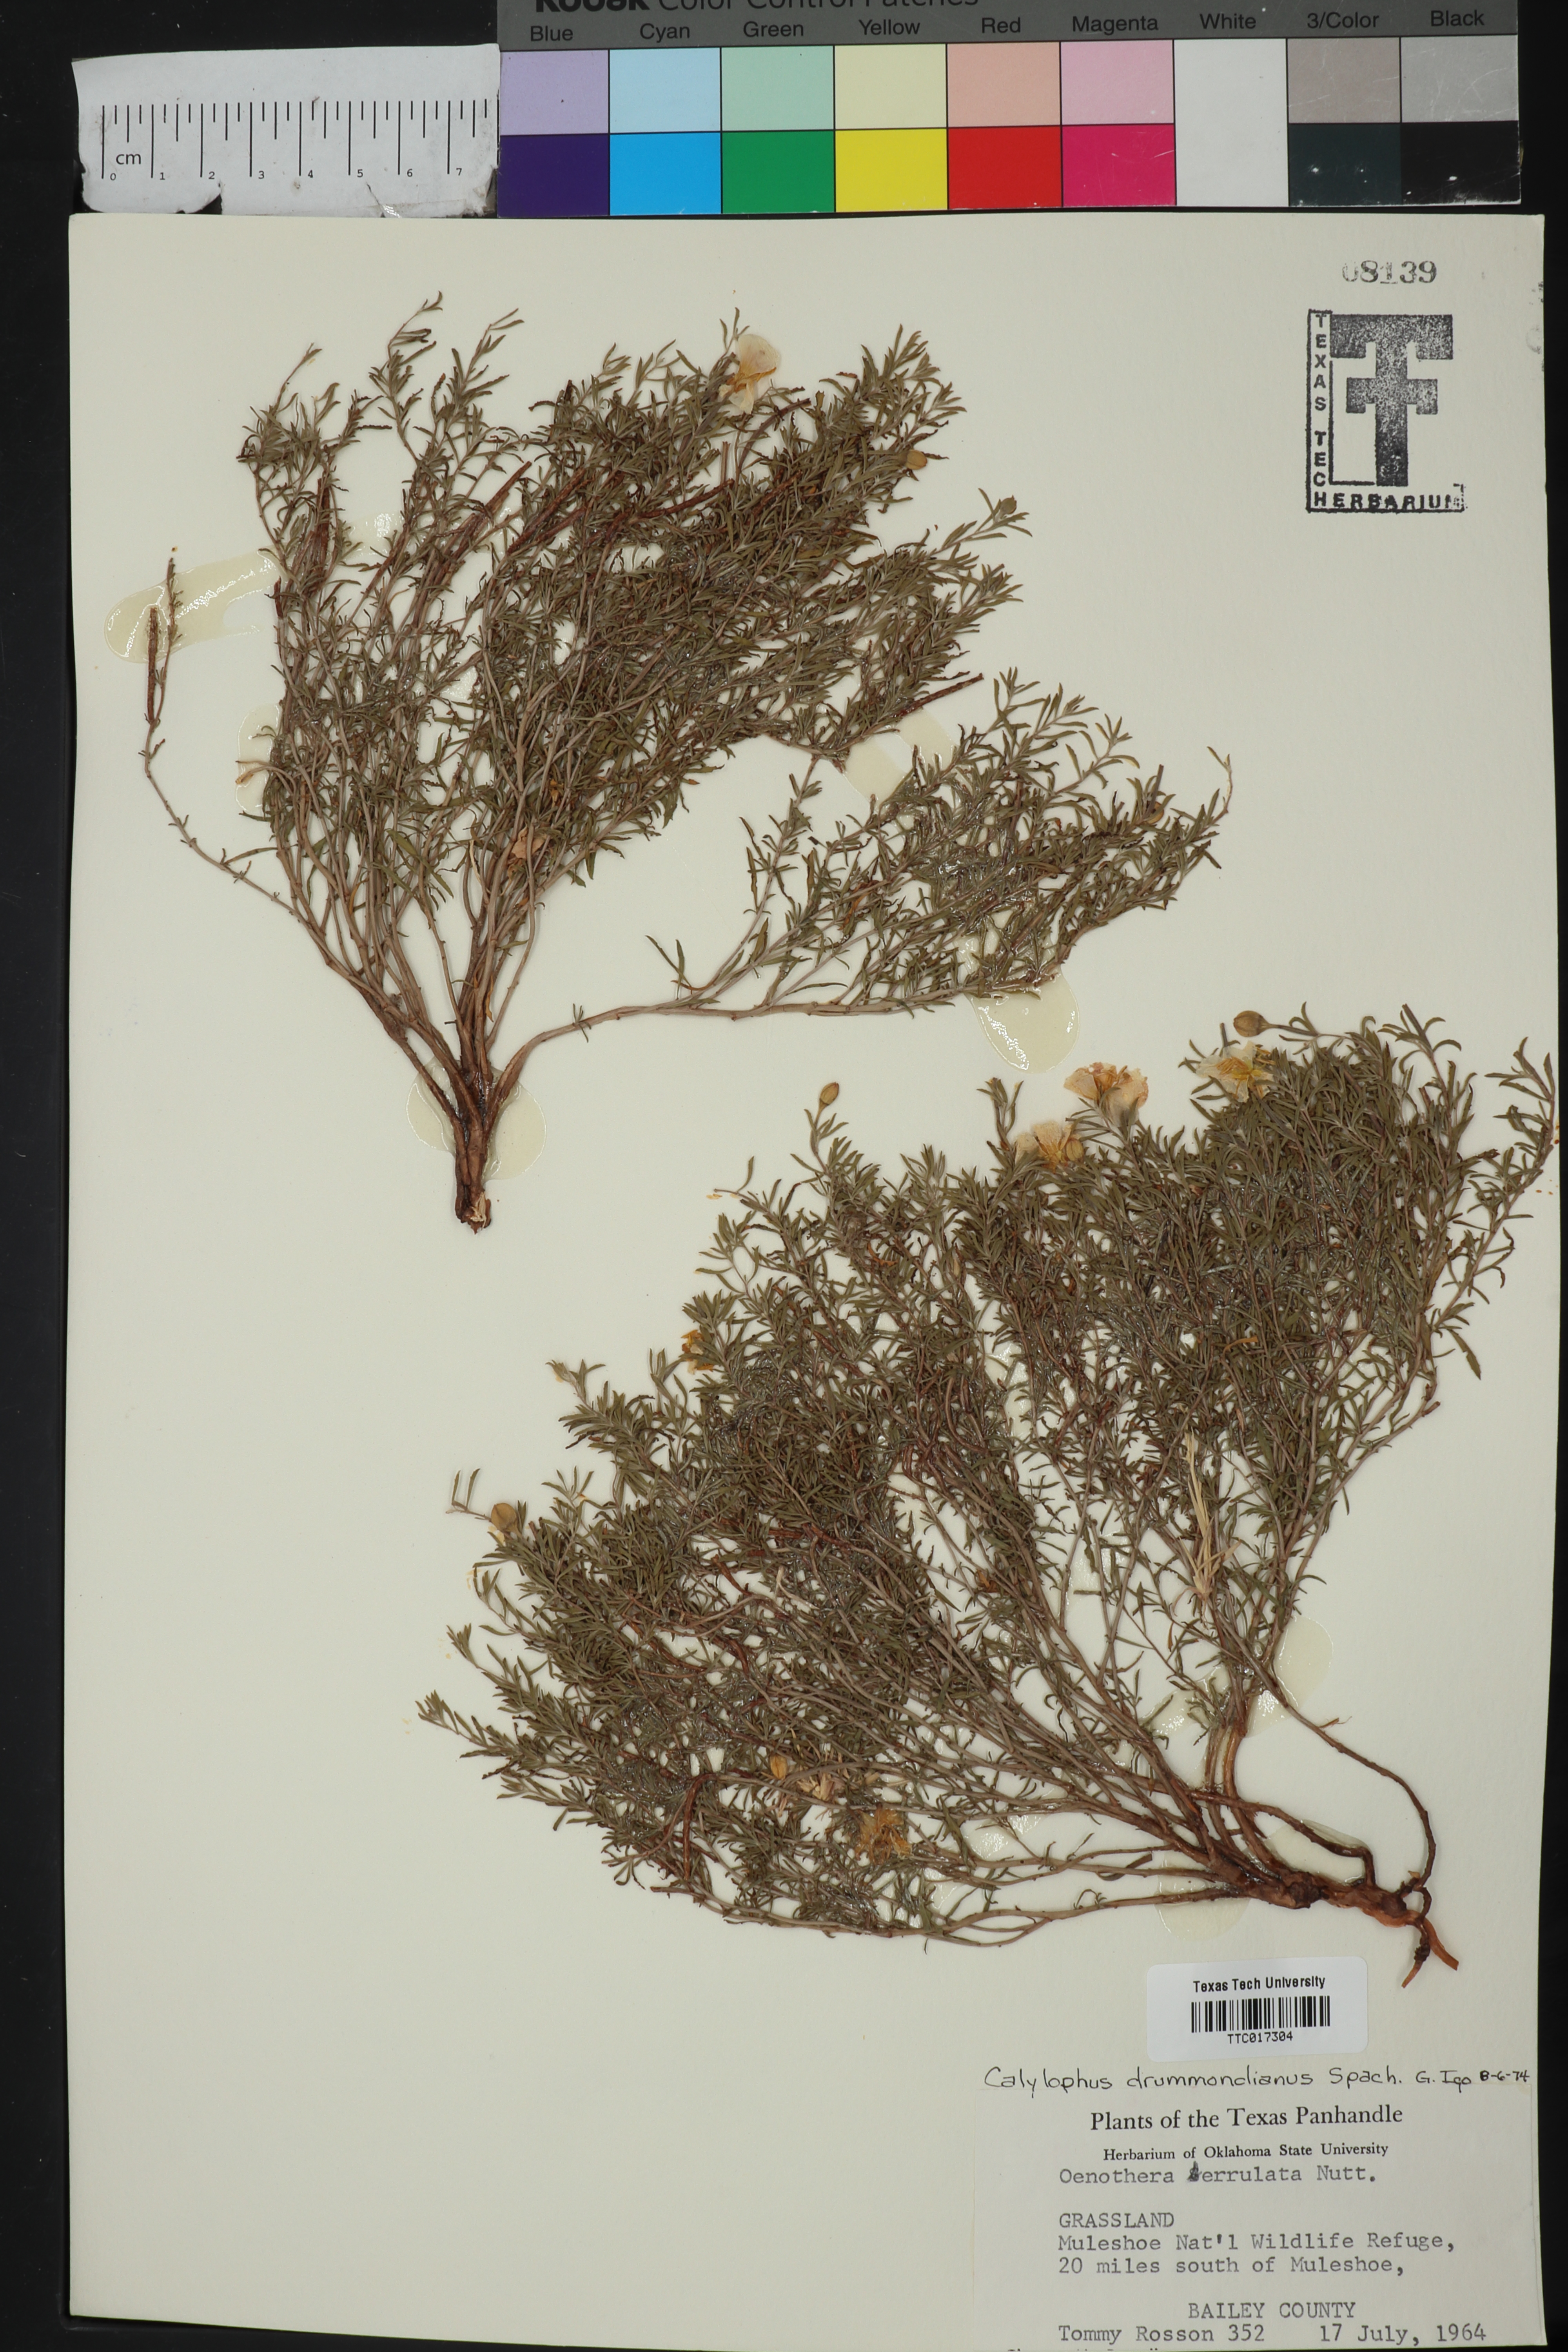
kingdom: Plantae
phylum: Tracheophyta
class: Magnoliopsida
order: Myrtales
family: Onagraceae
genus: Oenothera
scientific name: Oenothera serrulata
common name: Half-shrub calylophus
